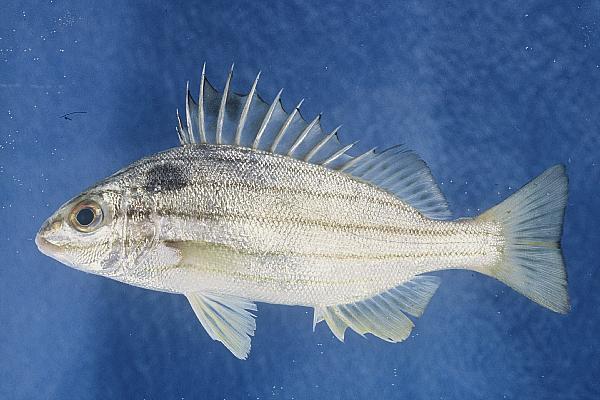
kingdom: Animalia
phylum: Chordata
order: Perciformes
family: Terapontidae
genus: Pelates
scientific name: Pelates quadrilineatus
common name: Fourlined terapon
